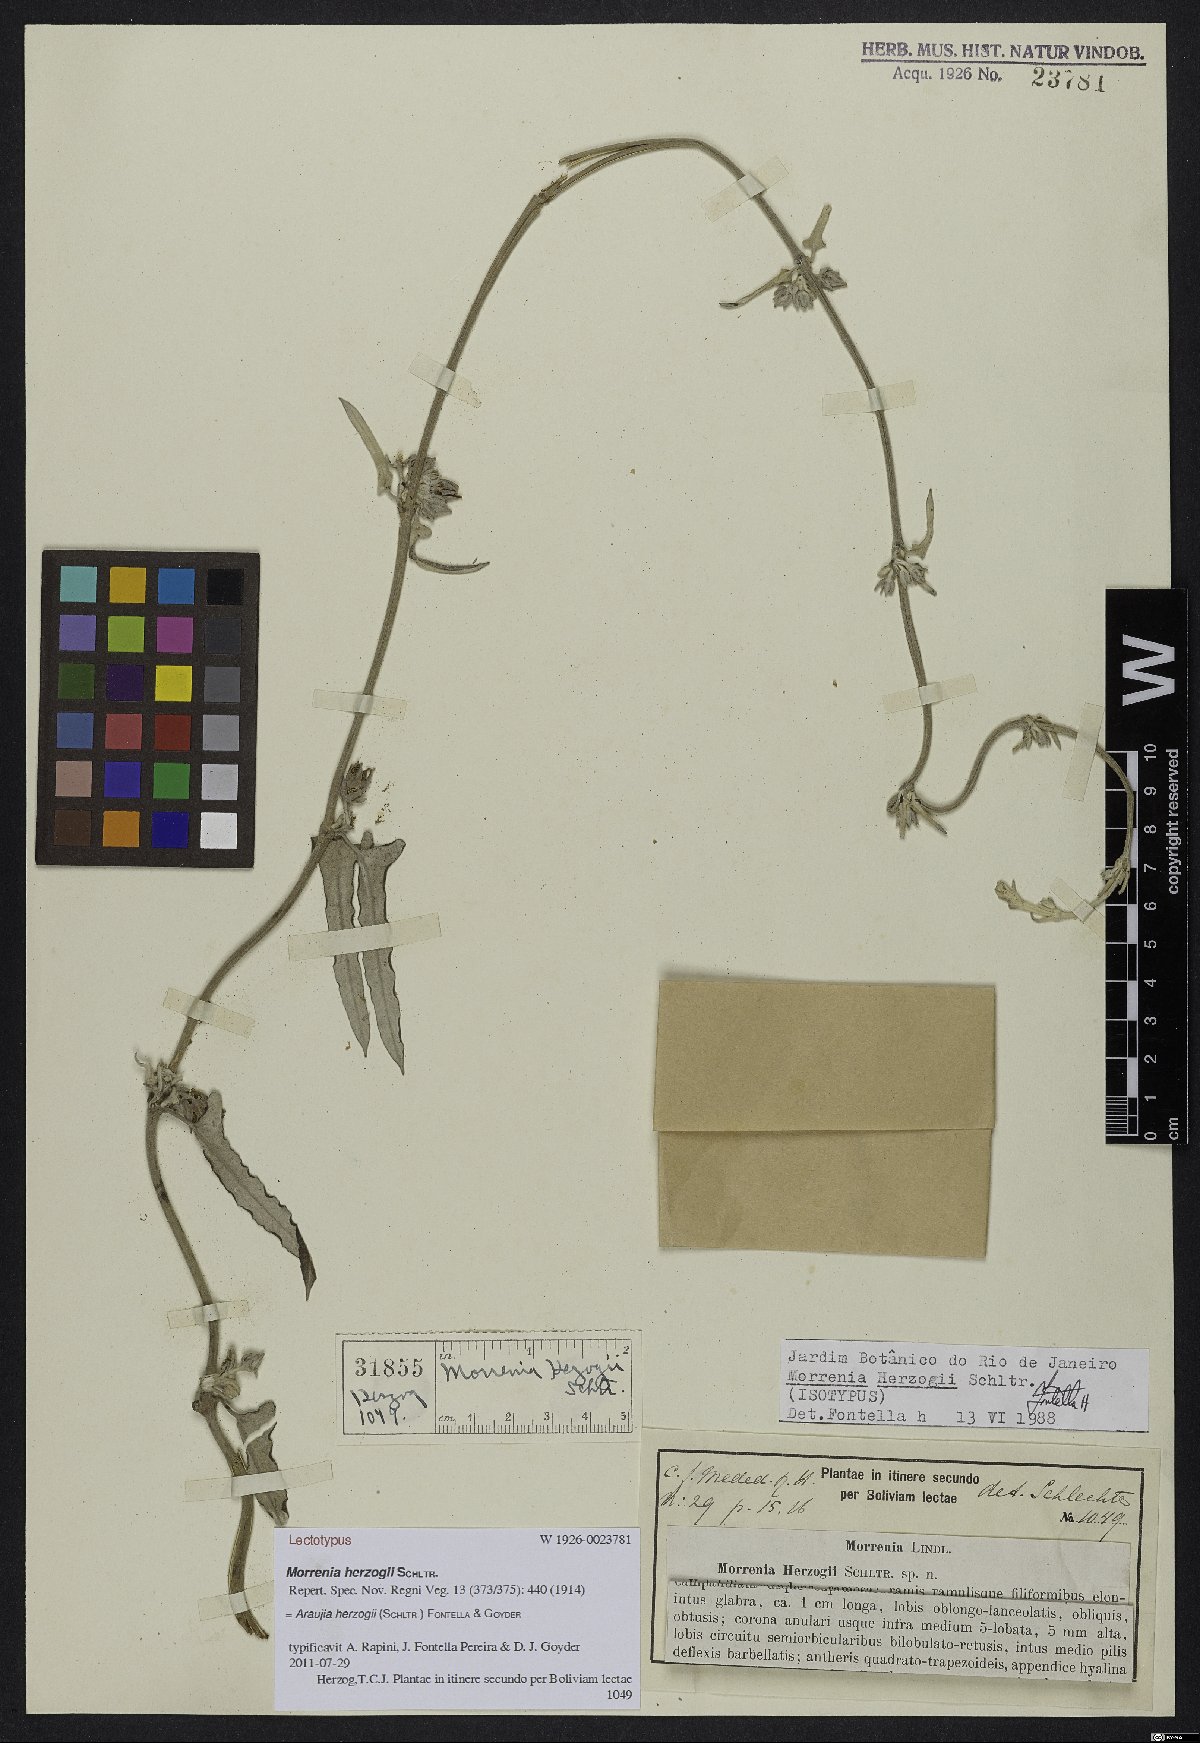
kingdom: Plantae
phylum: Tracheophyta
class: Magnoliopsida
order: Gentianales
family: Apocynaceae
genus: Araujia
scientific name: Araujia herzogii
